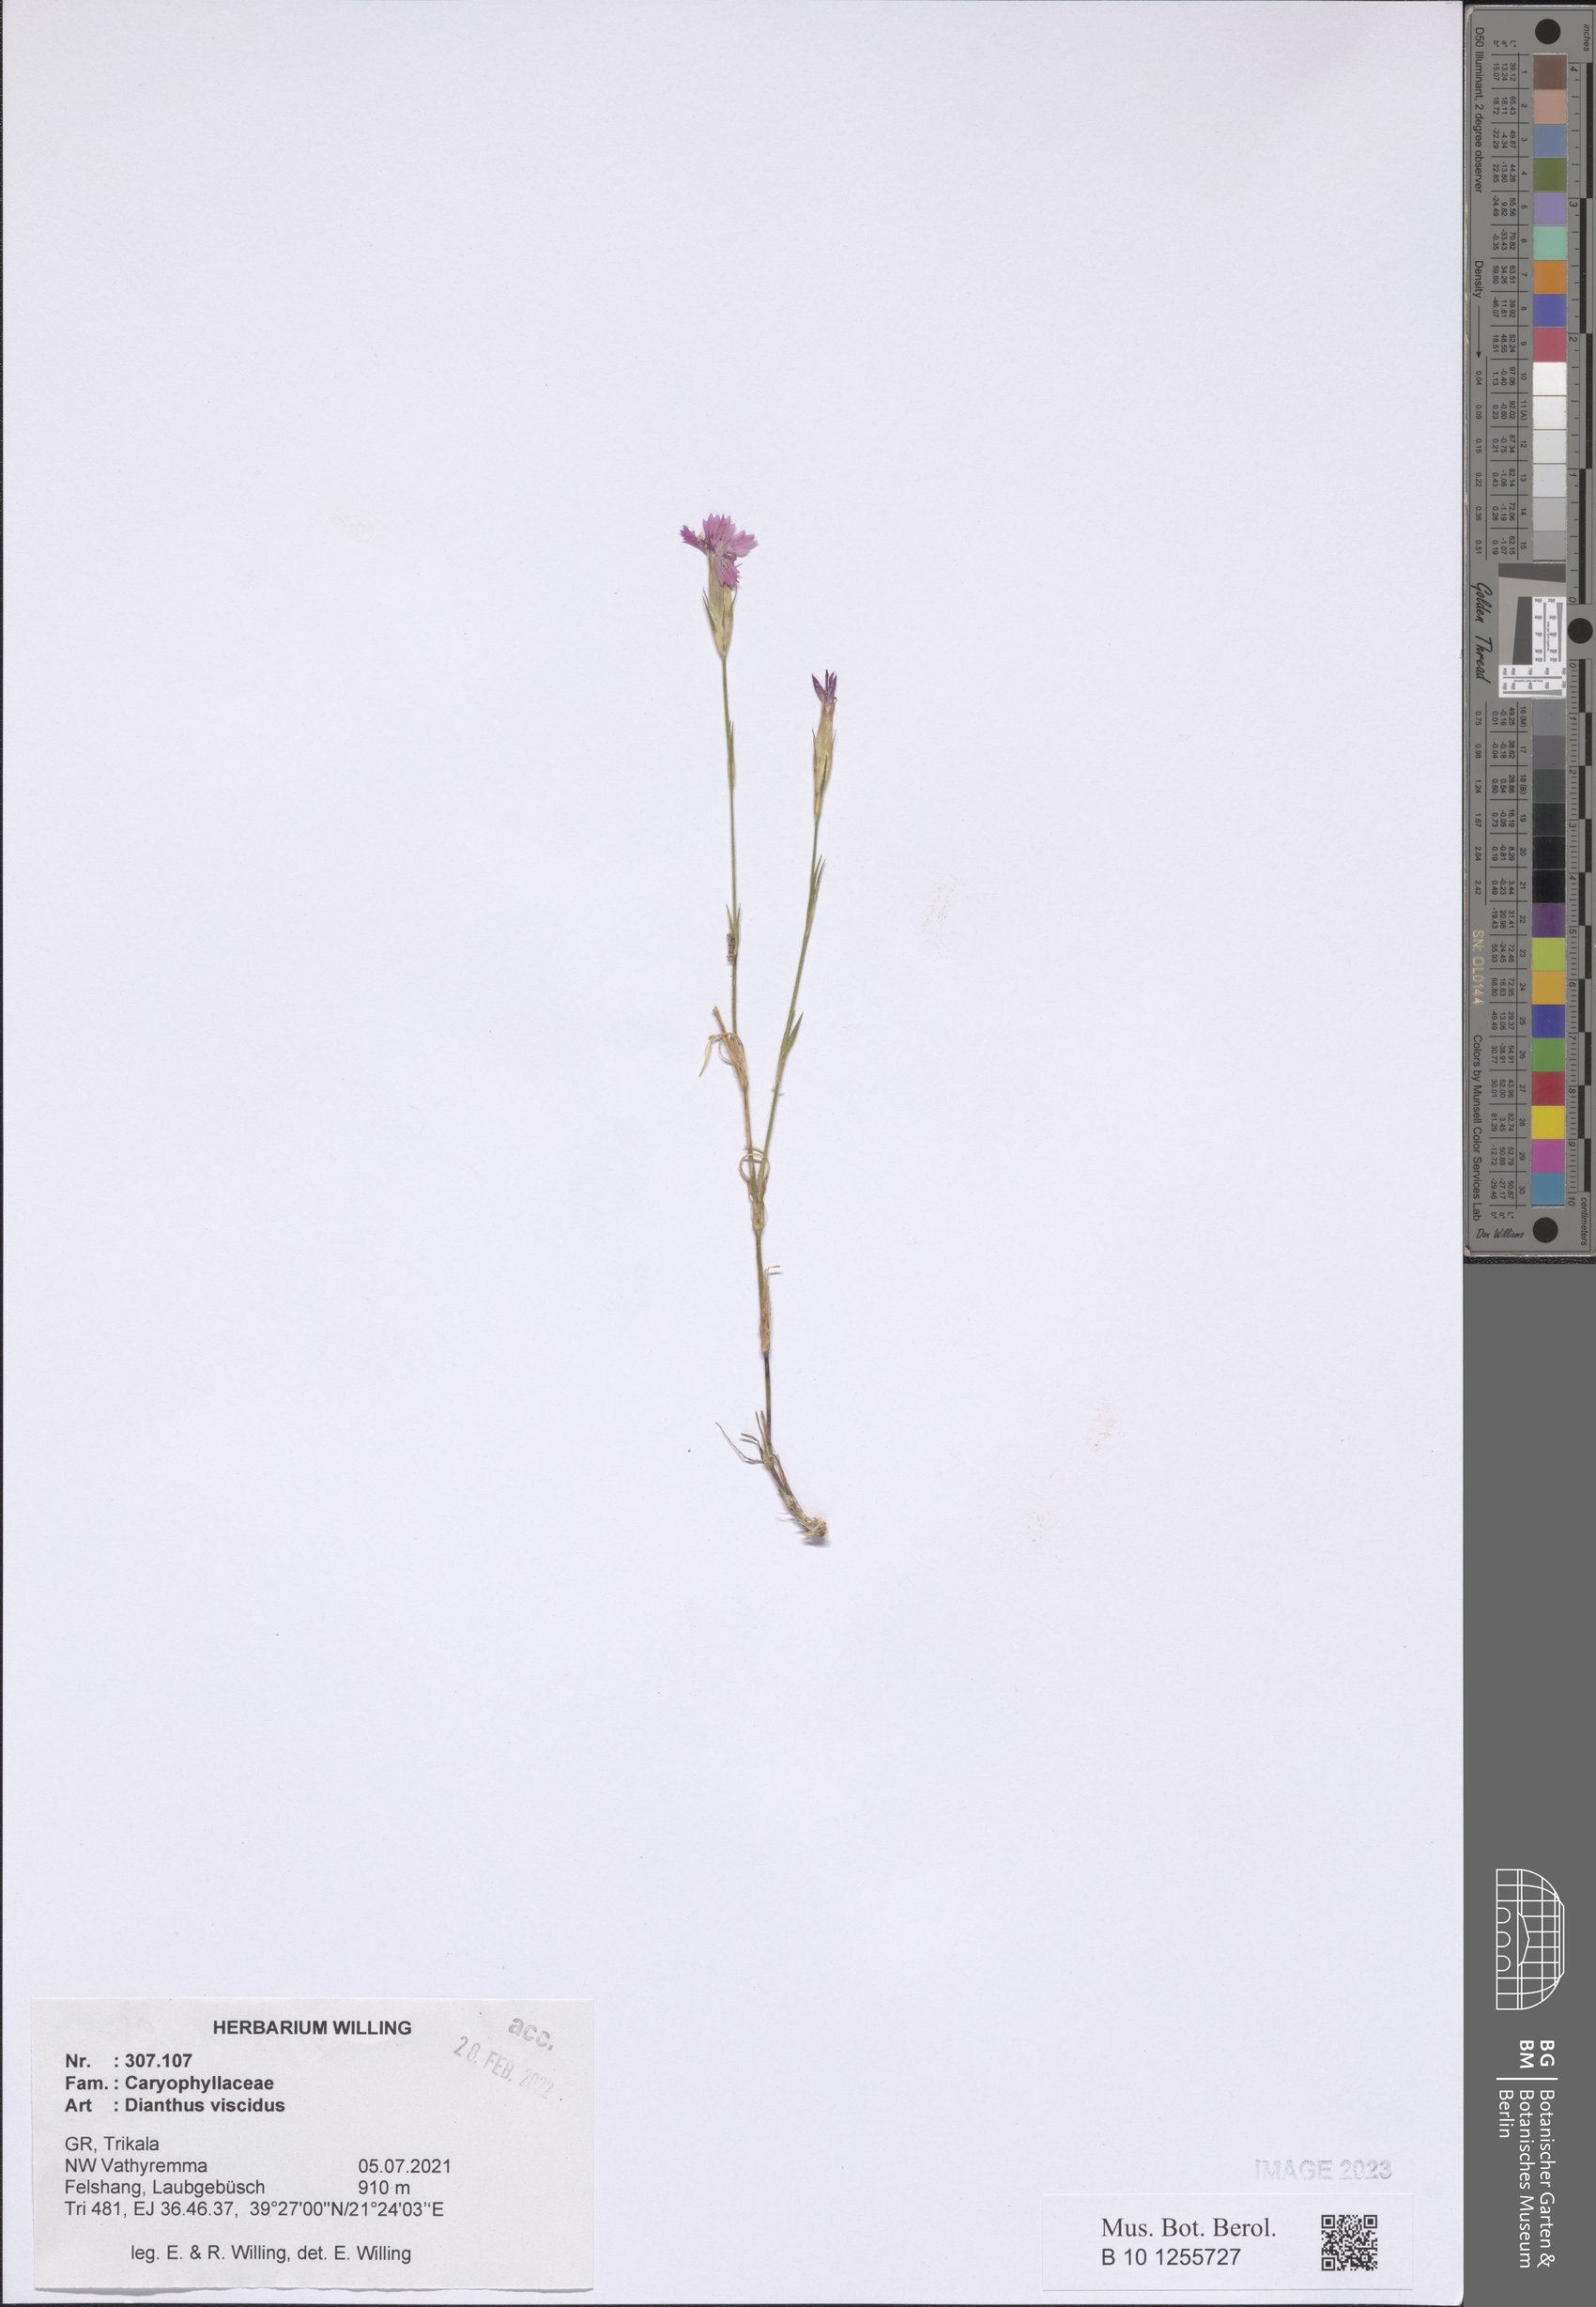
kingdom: Plantae
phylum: Tracheophyta
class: Magnoliopsida
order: Caryophyllales
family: Caryophyllaceae
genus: Dianthus
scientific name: Dianthus viscidus
